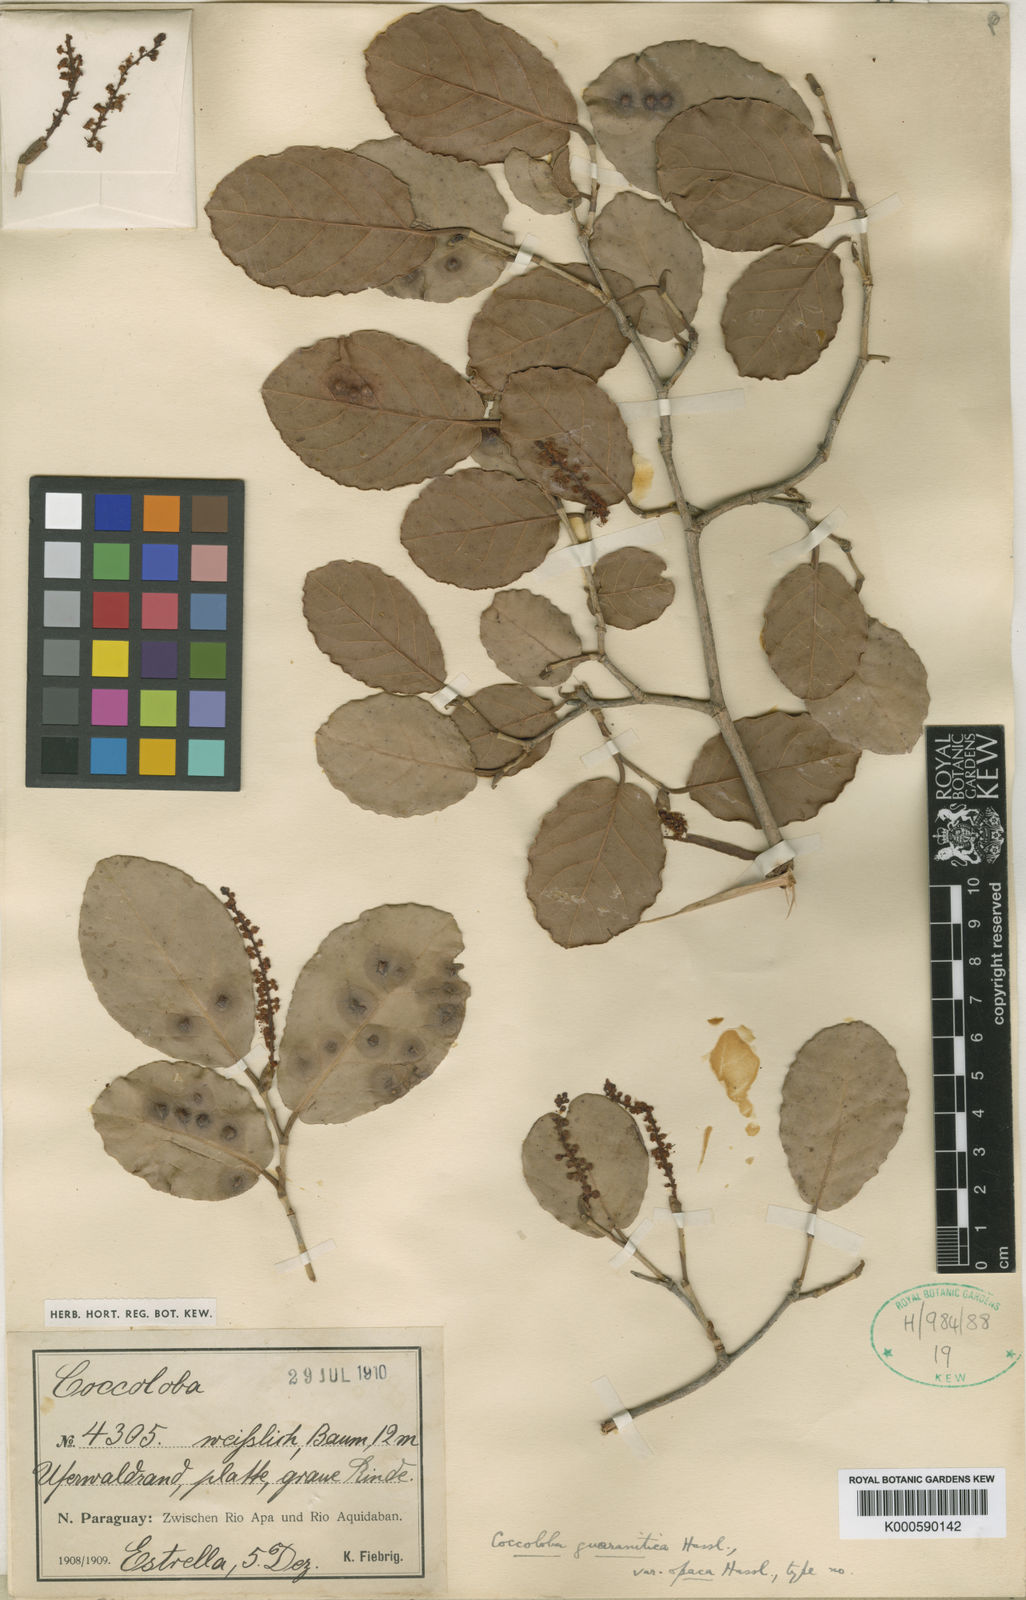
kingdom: Plantae
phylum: Tracheophyta
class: Magnoliopsida
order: Caryophyllales
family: Polygonaceae
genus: Coccoloba
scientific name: Coccoloba guaranitica
